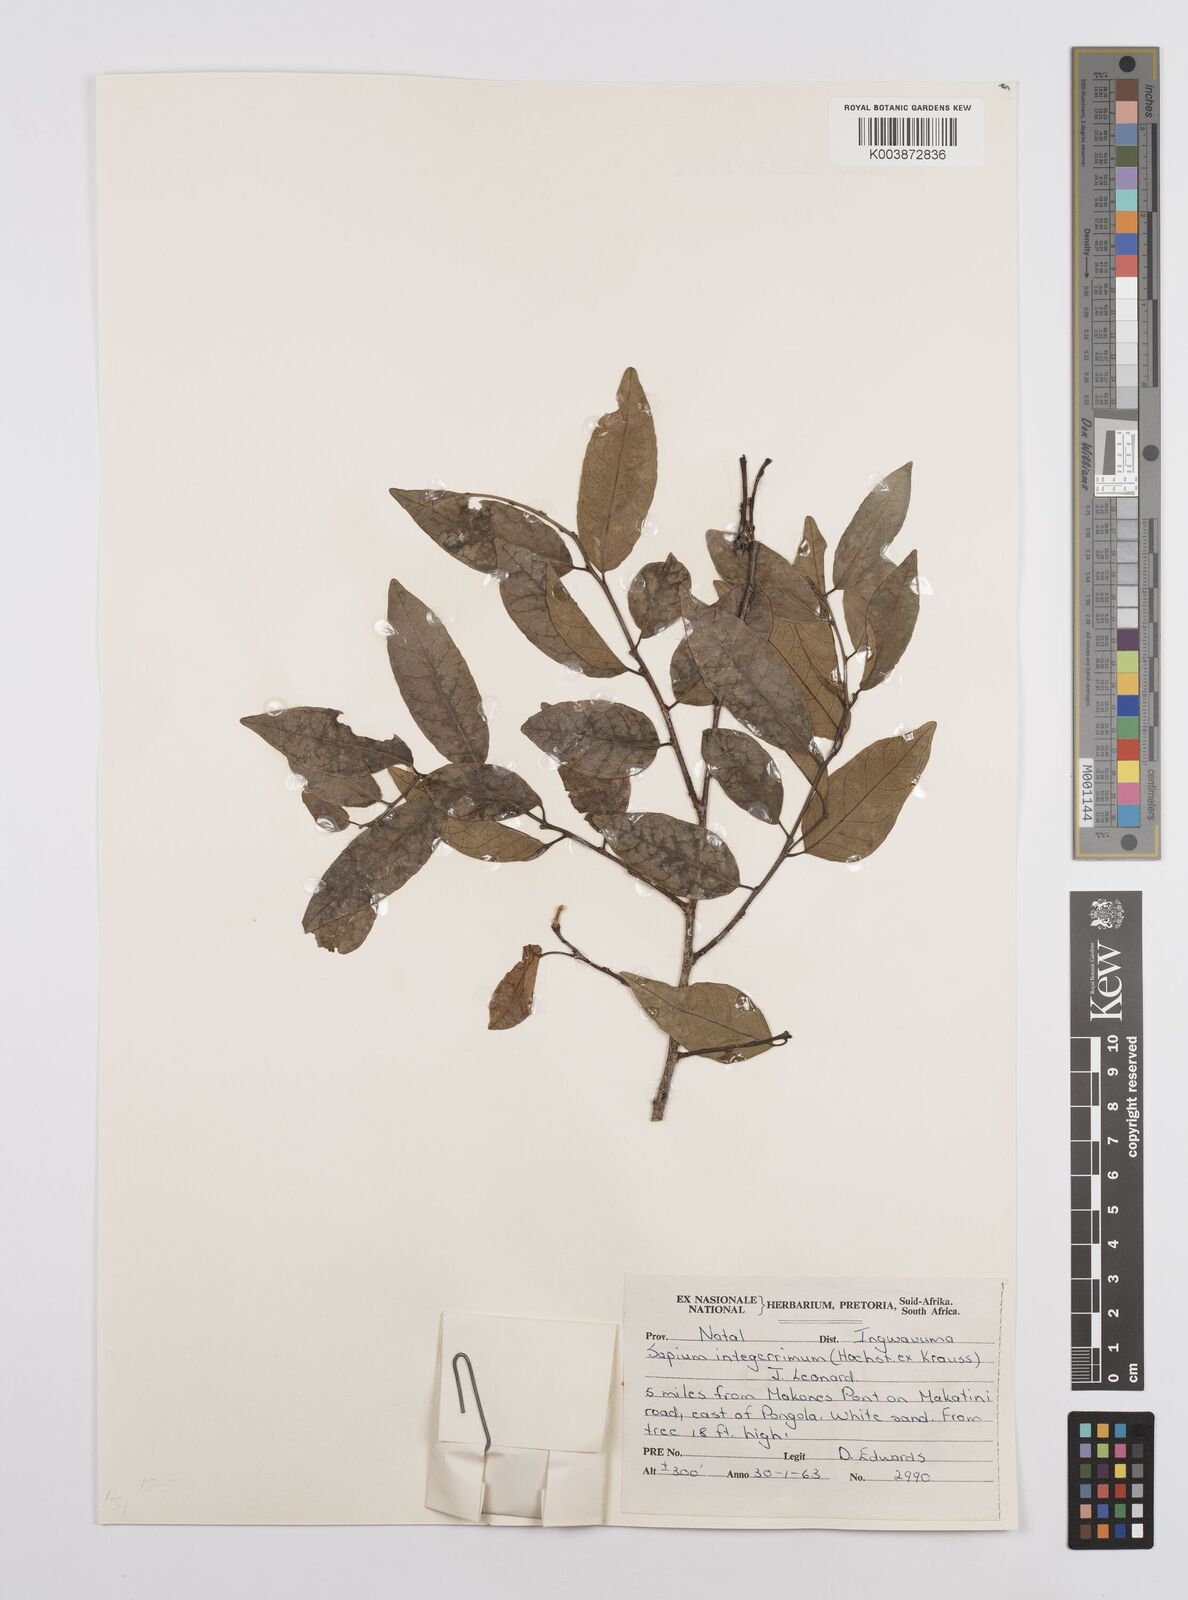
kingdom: Plantae
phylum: Tracheophyta
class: Magnoliopsida
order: Malpighiales
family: Euphorbiaceae
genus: Sclerocroton
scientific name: Sclerocroton integerrimus
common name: Duiker berry
